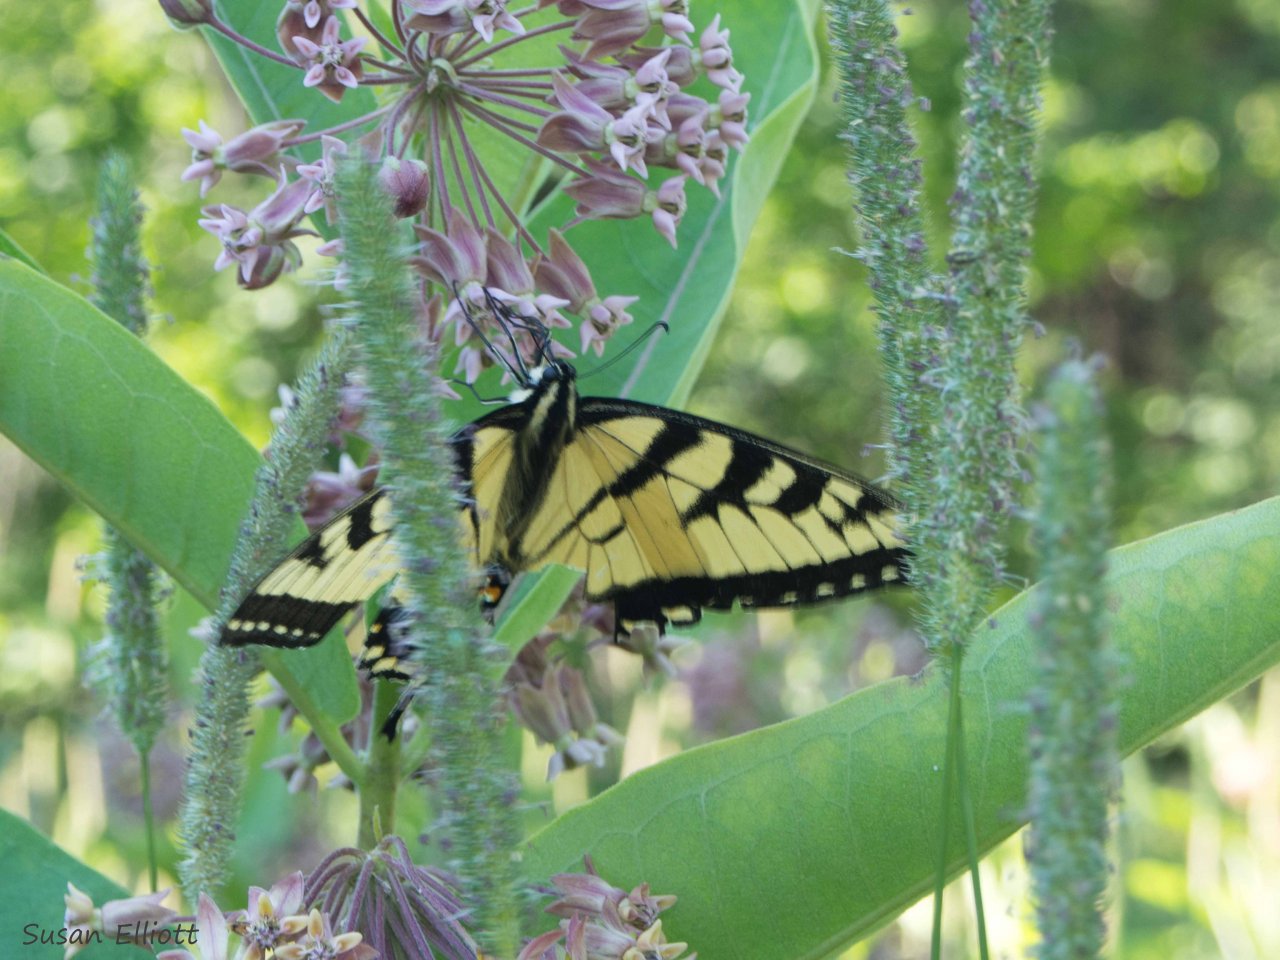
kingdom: Animalia
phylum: Arthropoda
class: Insecta
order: Lepidoptera
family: Papilionidae
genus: Papilio
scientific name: Papilio
